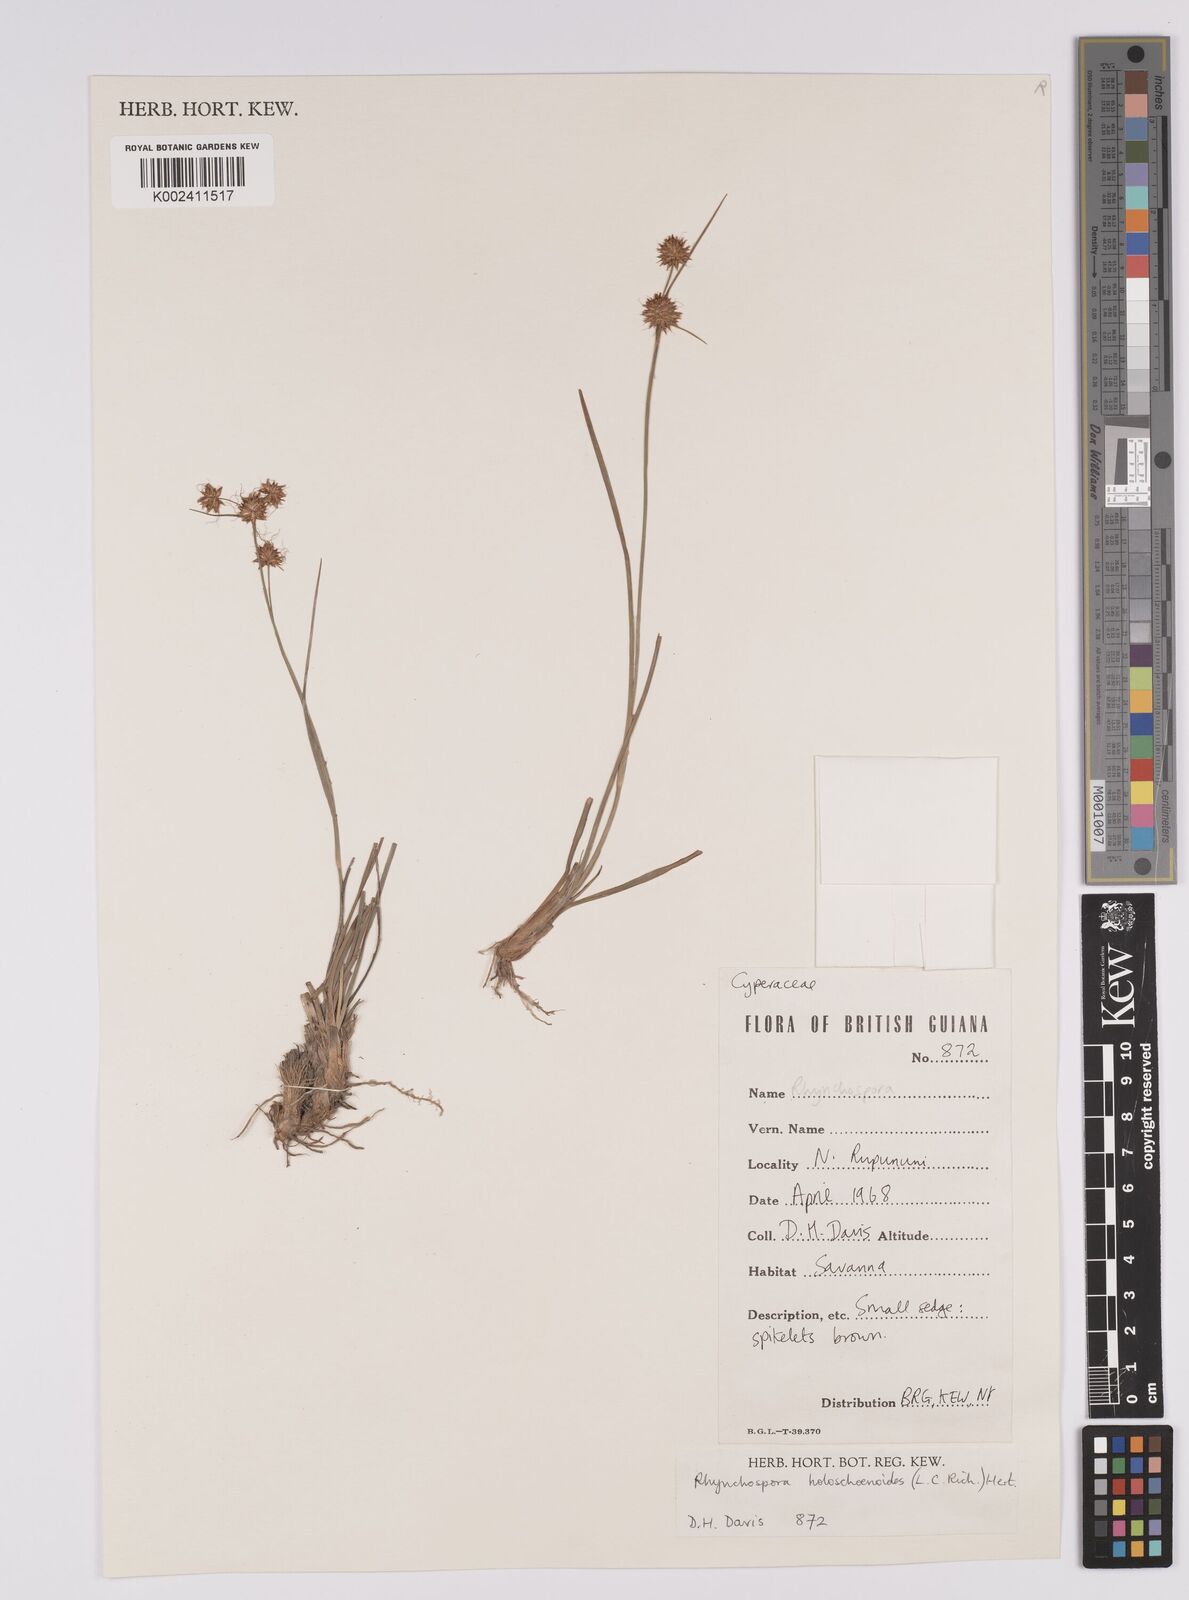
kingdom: Plantae
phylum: Tracheophyta
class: Liliopsida
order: Poales
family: Cyperaceae
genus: Rhynchospora
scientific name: Rhynchospora holoschoenoides
